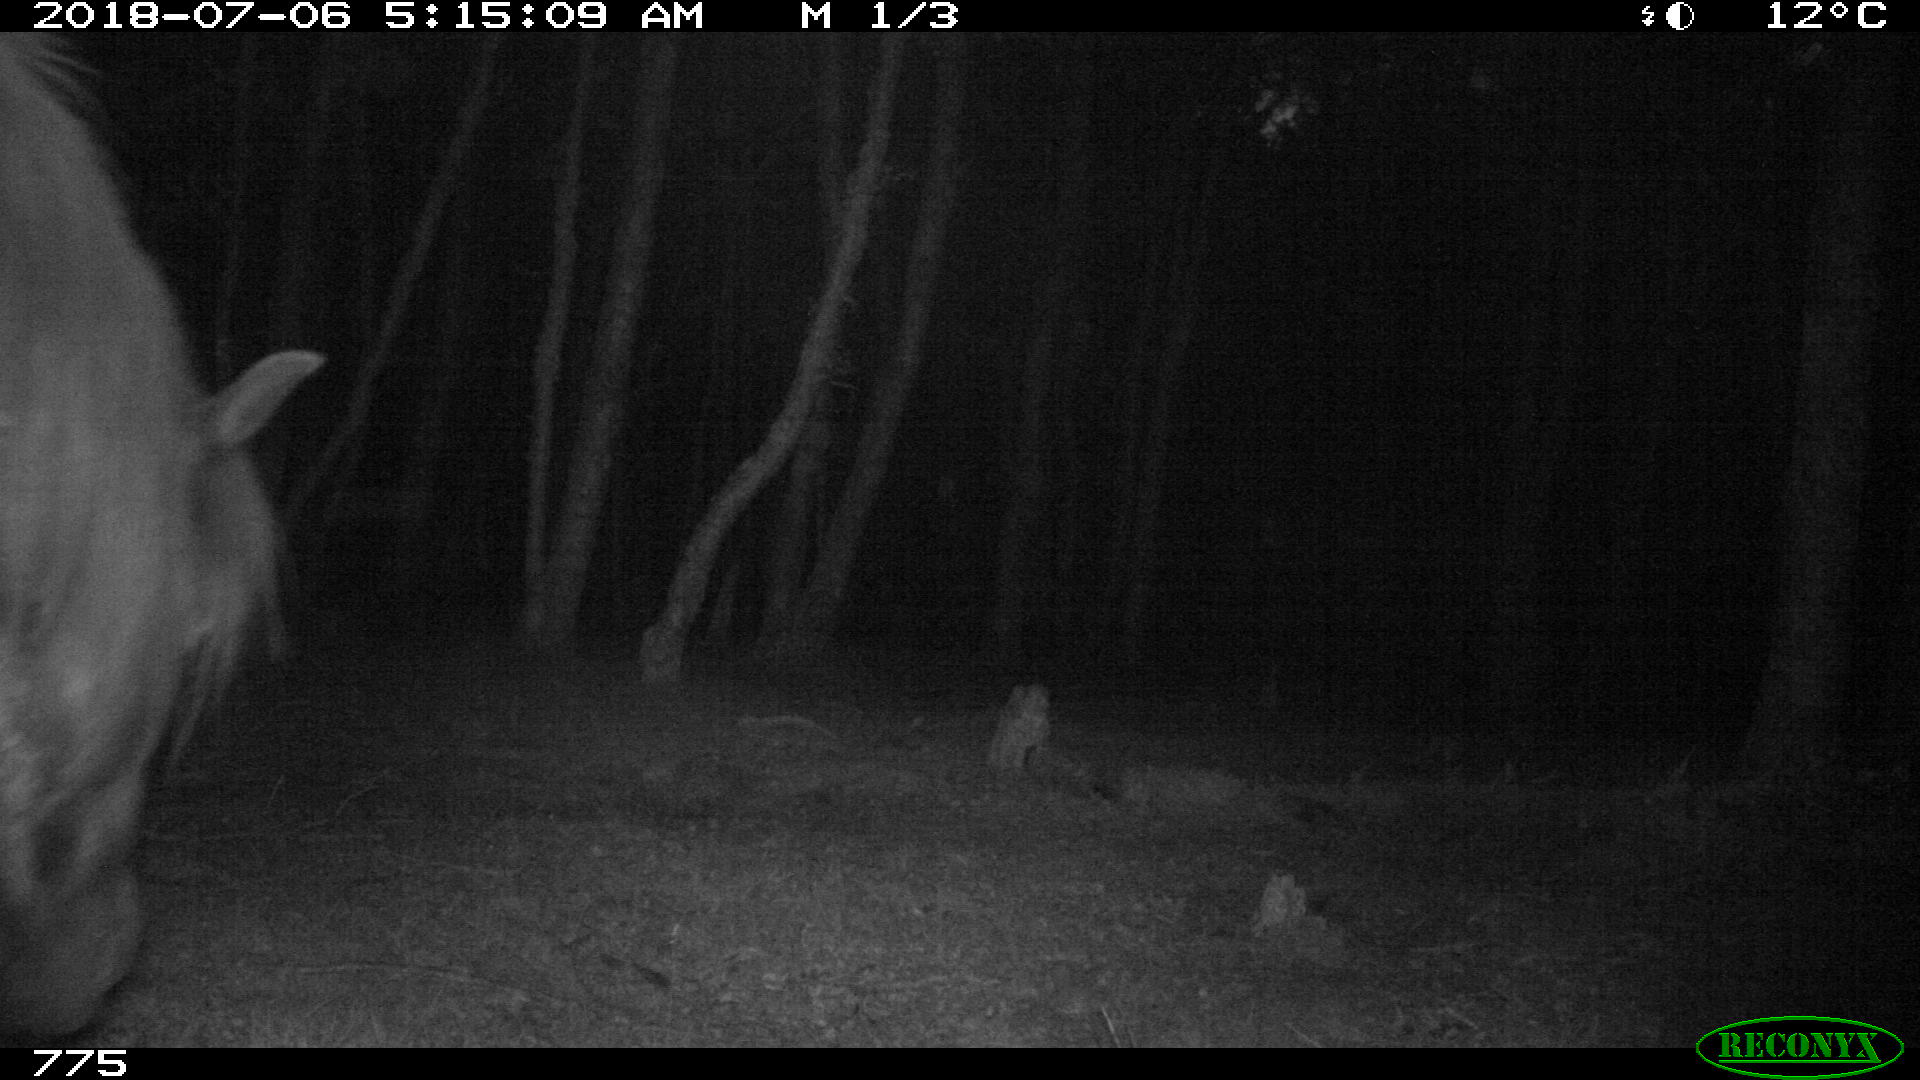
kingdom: Animalia
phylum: Chordata
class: Mammalia
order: Perissodactyla
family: Equidae
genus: Equus
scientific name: Equus caballus
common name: Horse
